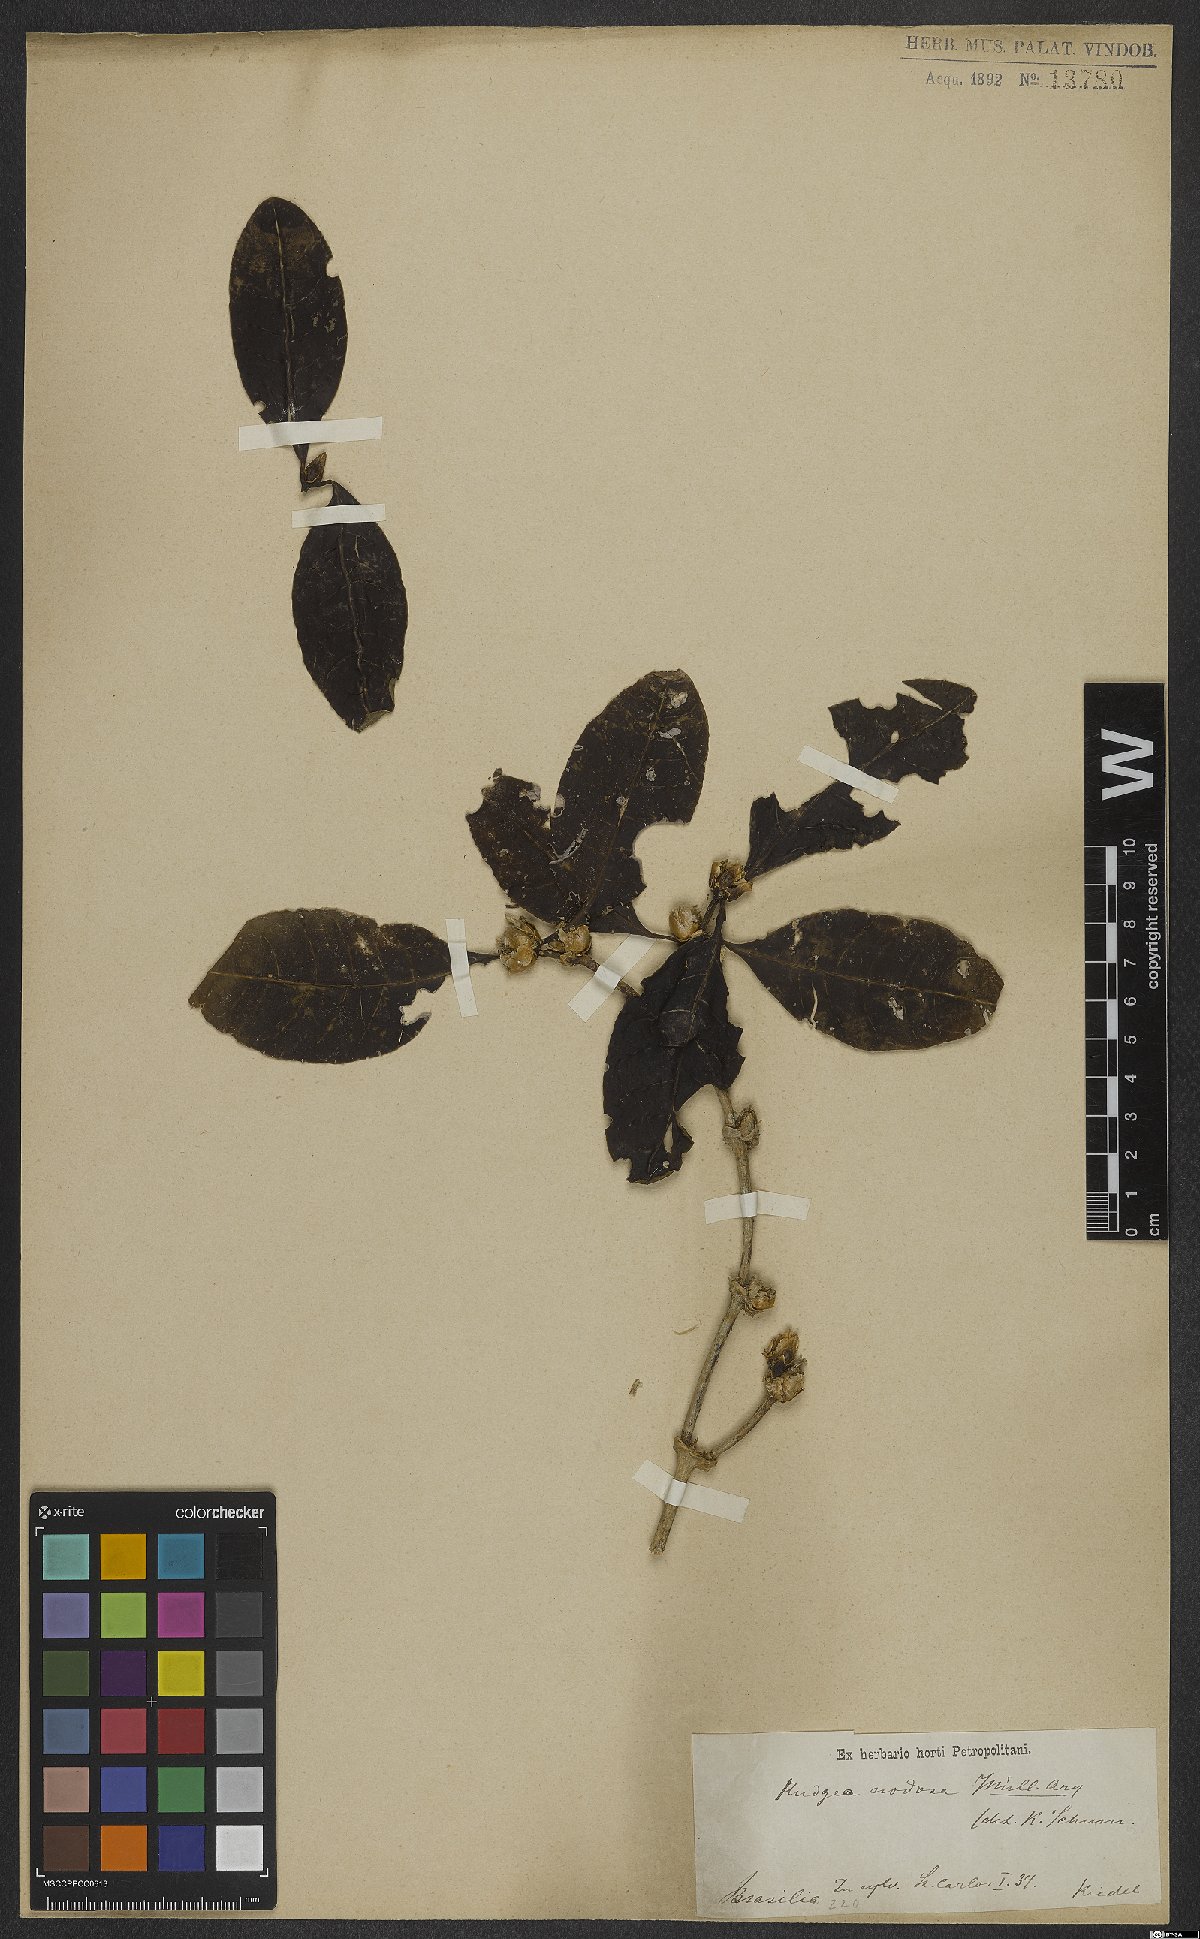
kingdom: Plantae
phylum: Tracheophyta
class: Magnoliopsida
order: Gentianales
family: Rubiaceae
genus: Rudgea
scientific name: Rudgea nodosa
